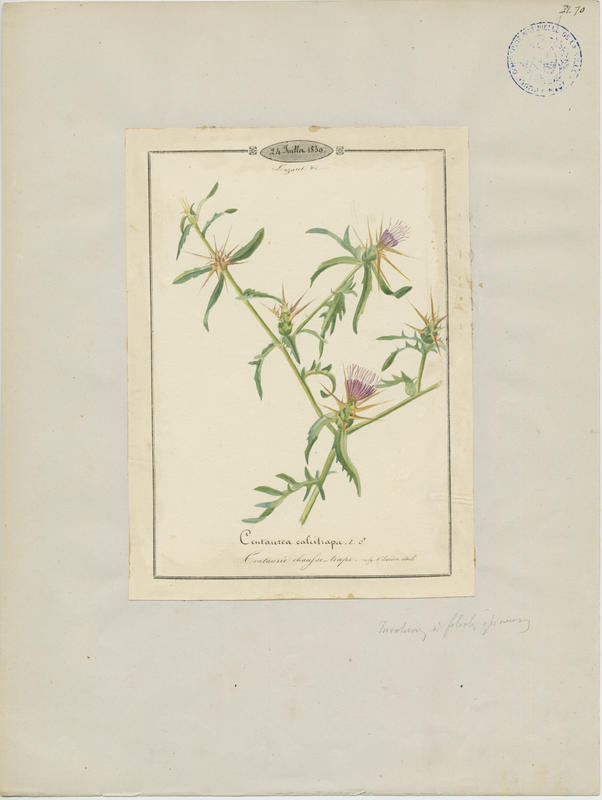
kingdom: Plantae
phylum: Tracheophyta
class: Magnoliopsida
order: Asterales
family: Asteraceae
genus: Centaurea
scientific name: Centaurea calcitrapa
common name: Red star-thistle
